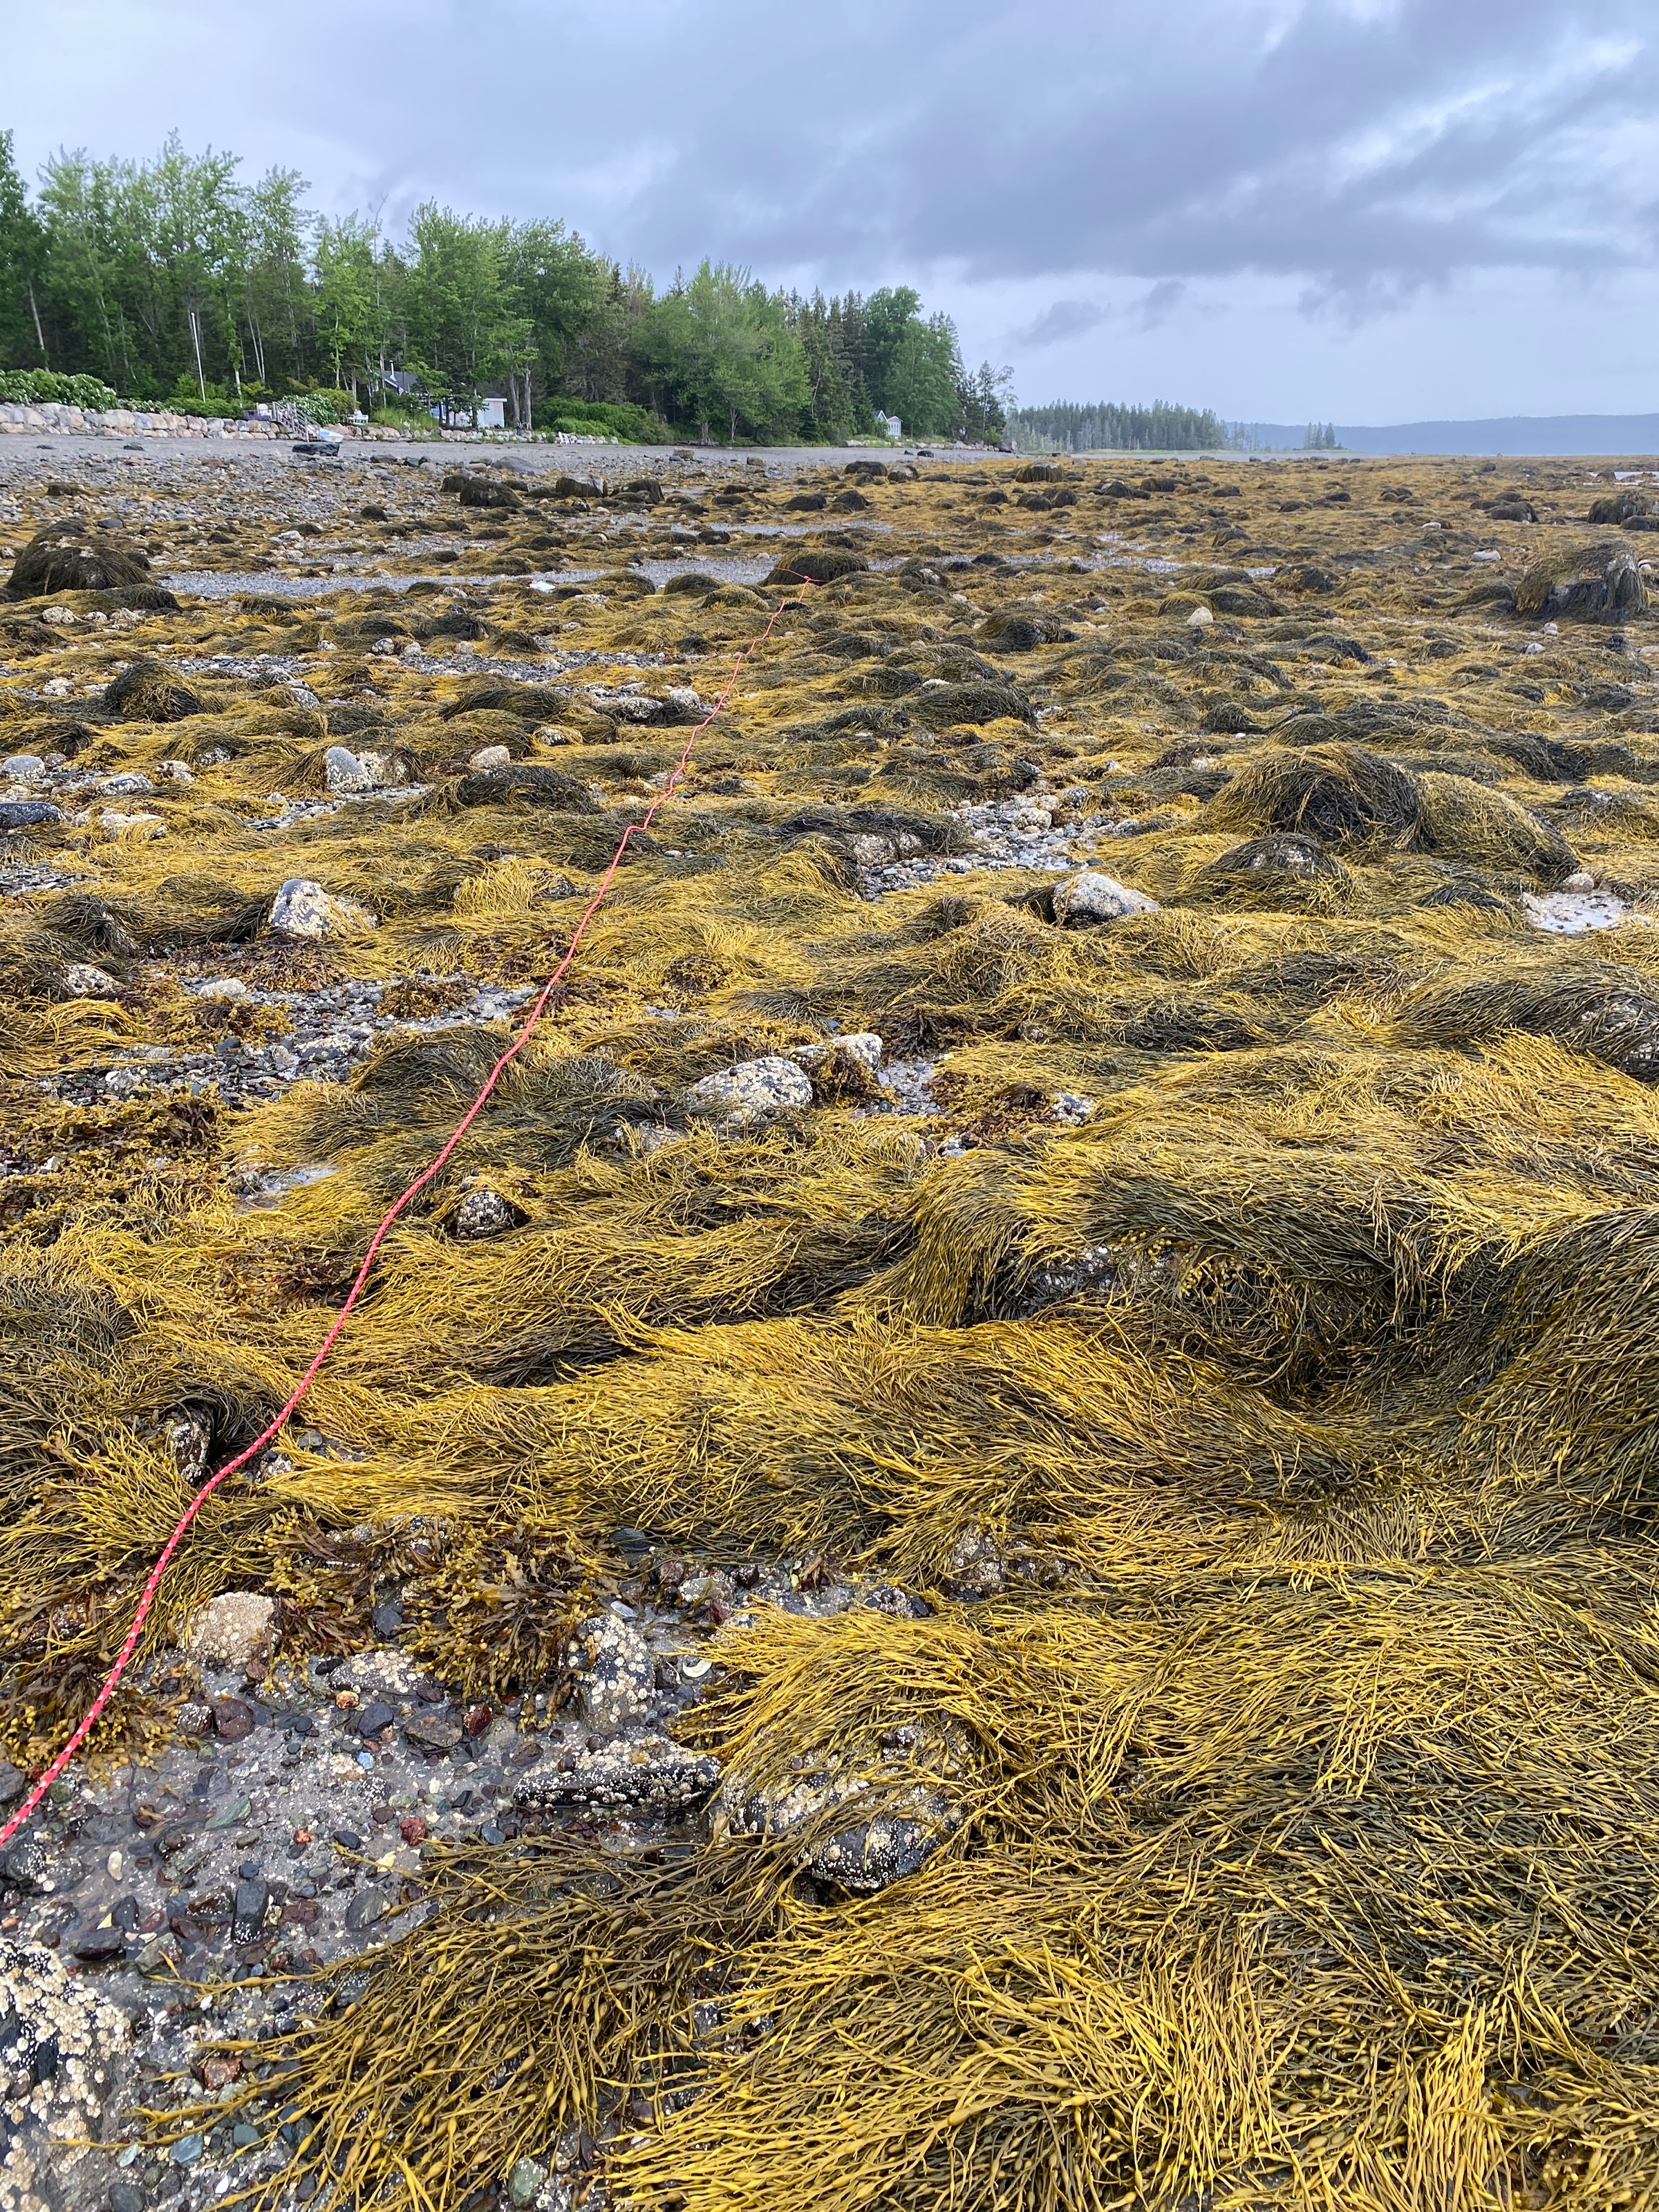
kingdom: Chromista
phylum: Ochrophyta
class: Phaeophyceae
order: Fucales
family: Fucaceae
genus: Ascophyllum
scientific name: Ascophyllum nodosum
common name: Rockweed
